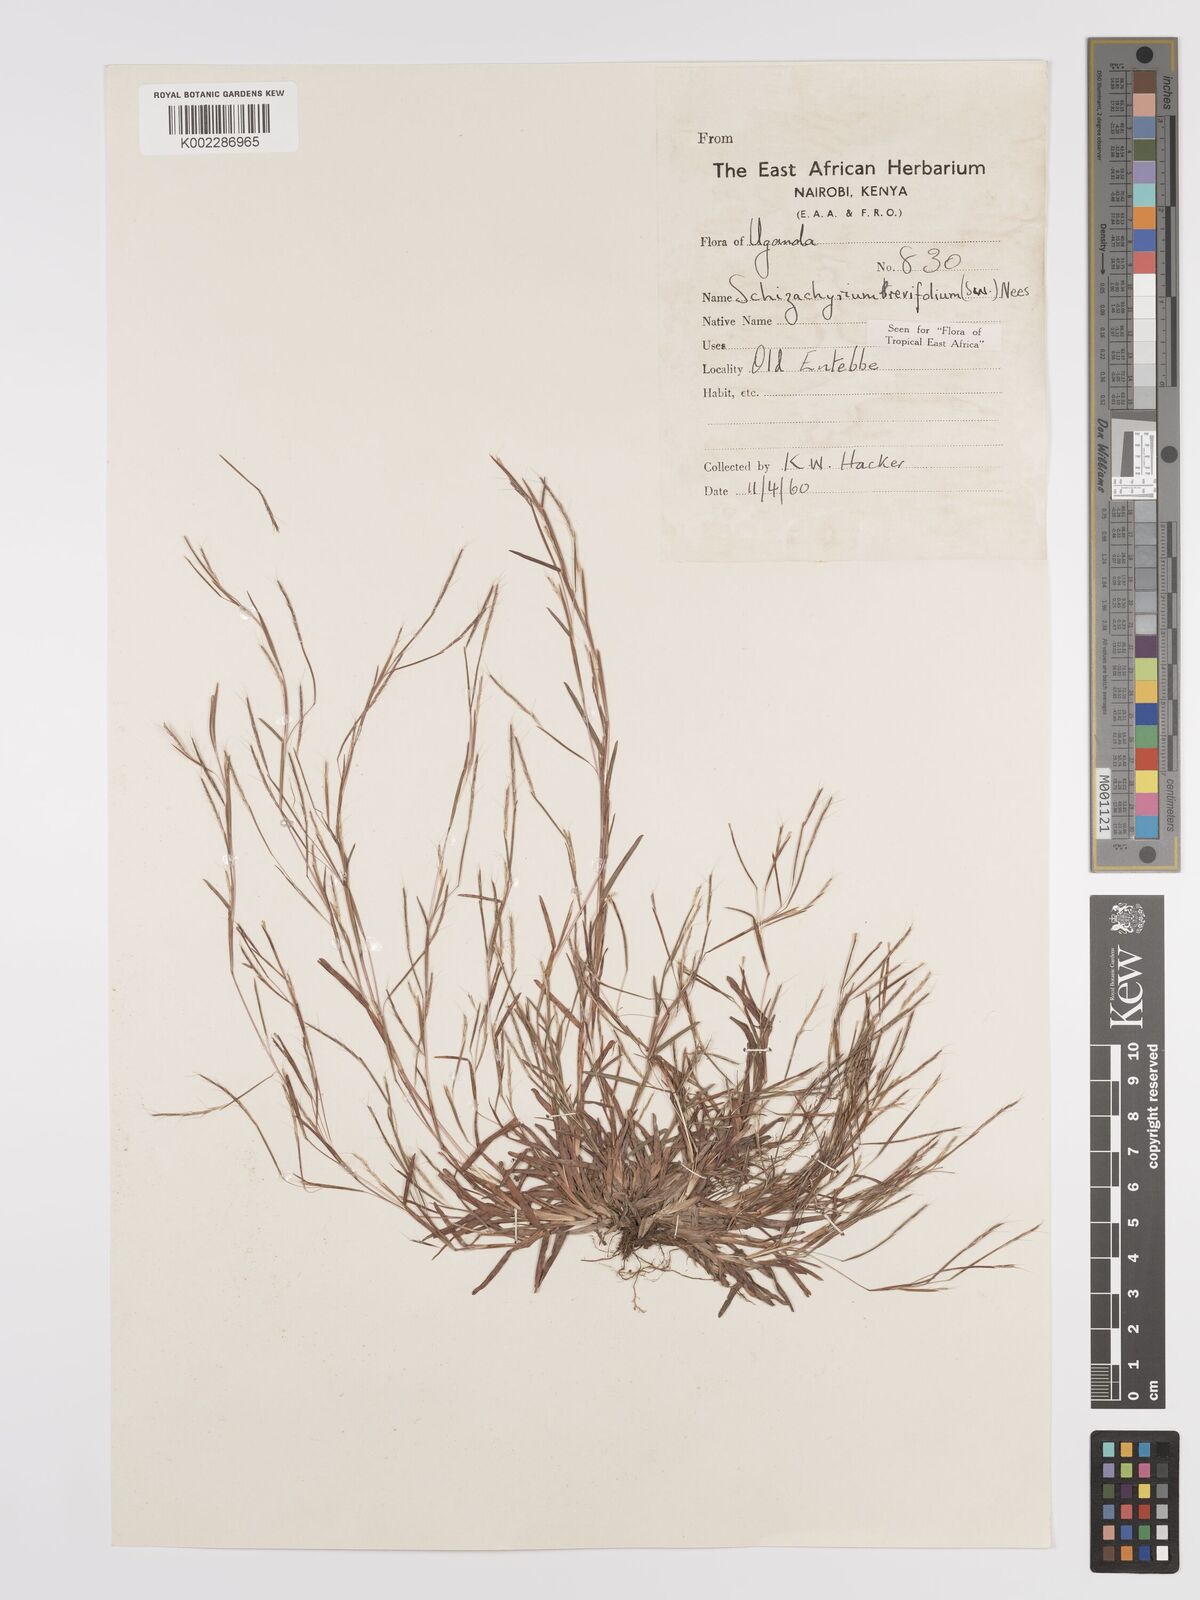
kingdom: Plantae
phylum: Tracheophyta
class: Liliopsida
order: Poales
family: Poaceae
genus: Schizachyrium
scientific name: Schizachyrium brevifolium
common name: Serillo dulce
